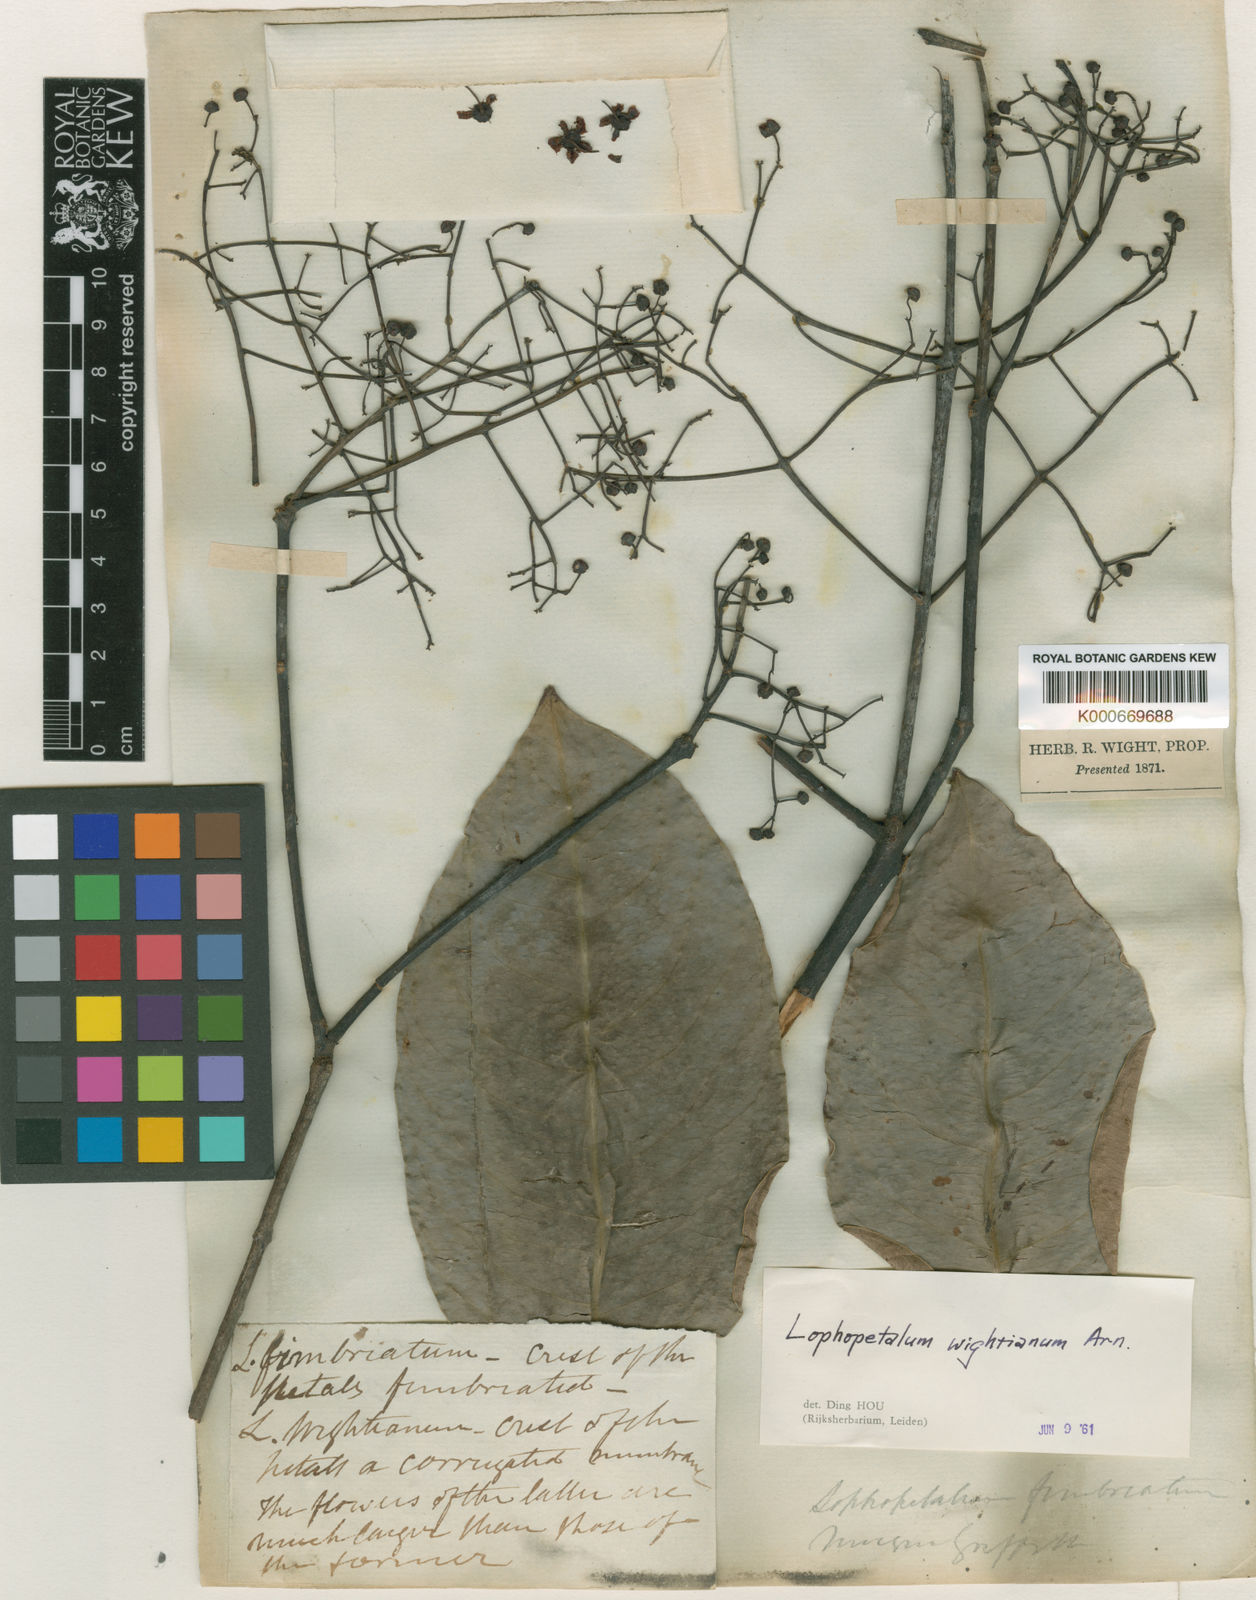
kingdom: Plantae
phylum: Tracheophyta
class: Magnoliopsida
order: Celastrales
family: Celastraceae
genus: Lophopetalum
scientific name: Lophopetalum wightianum
